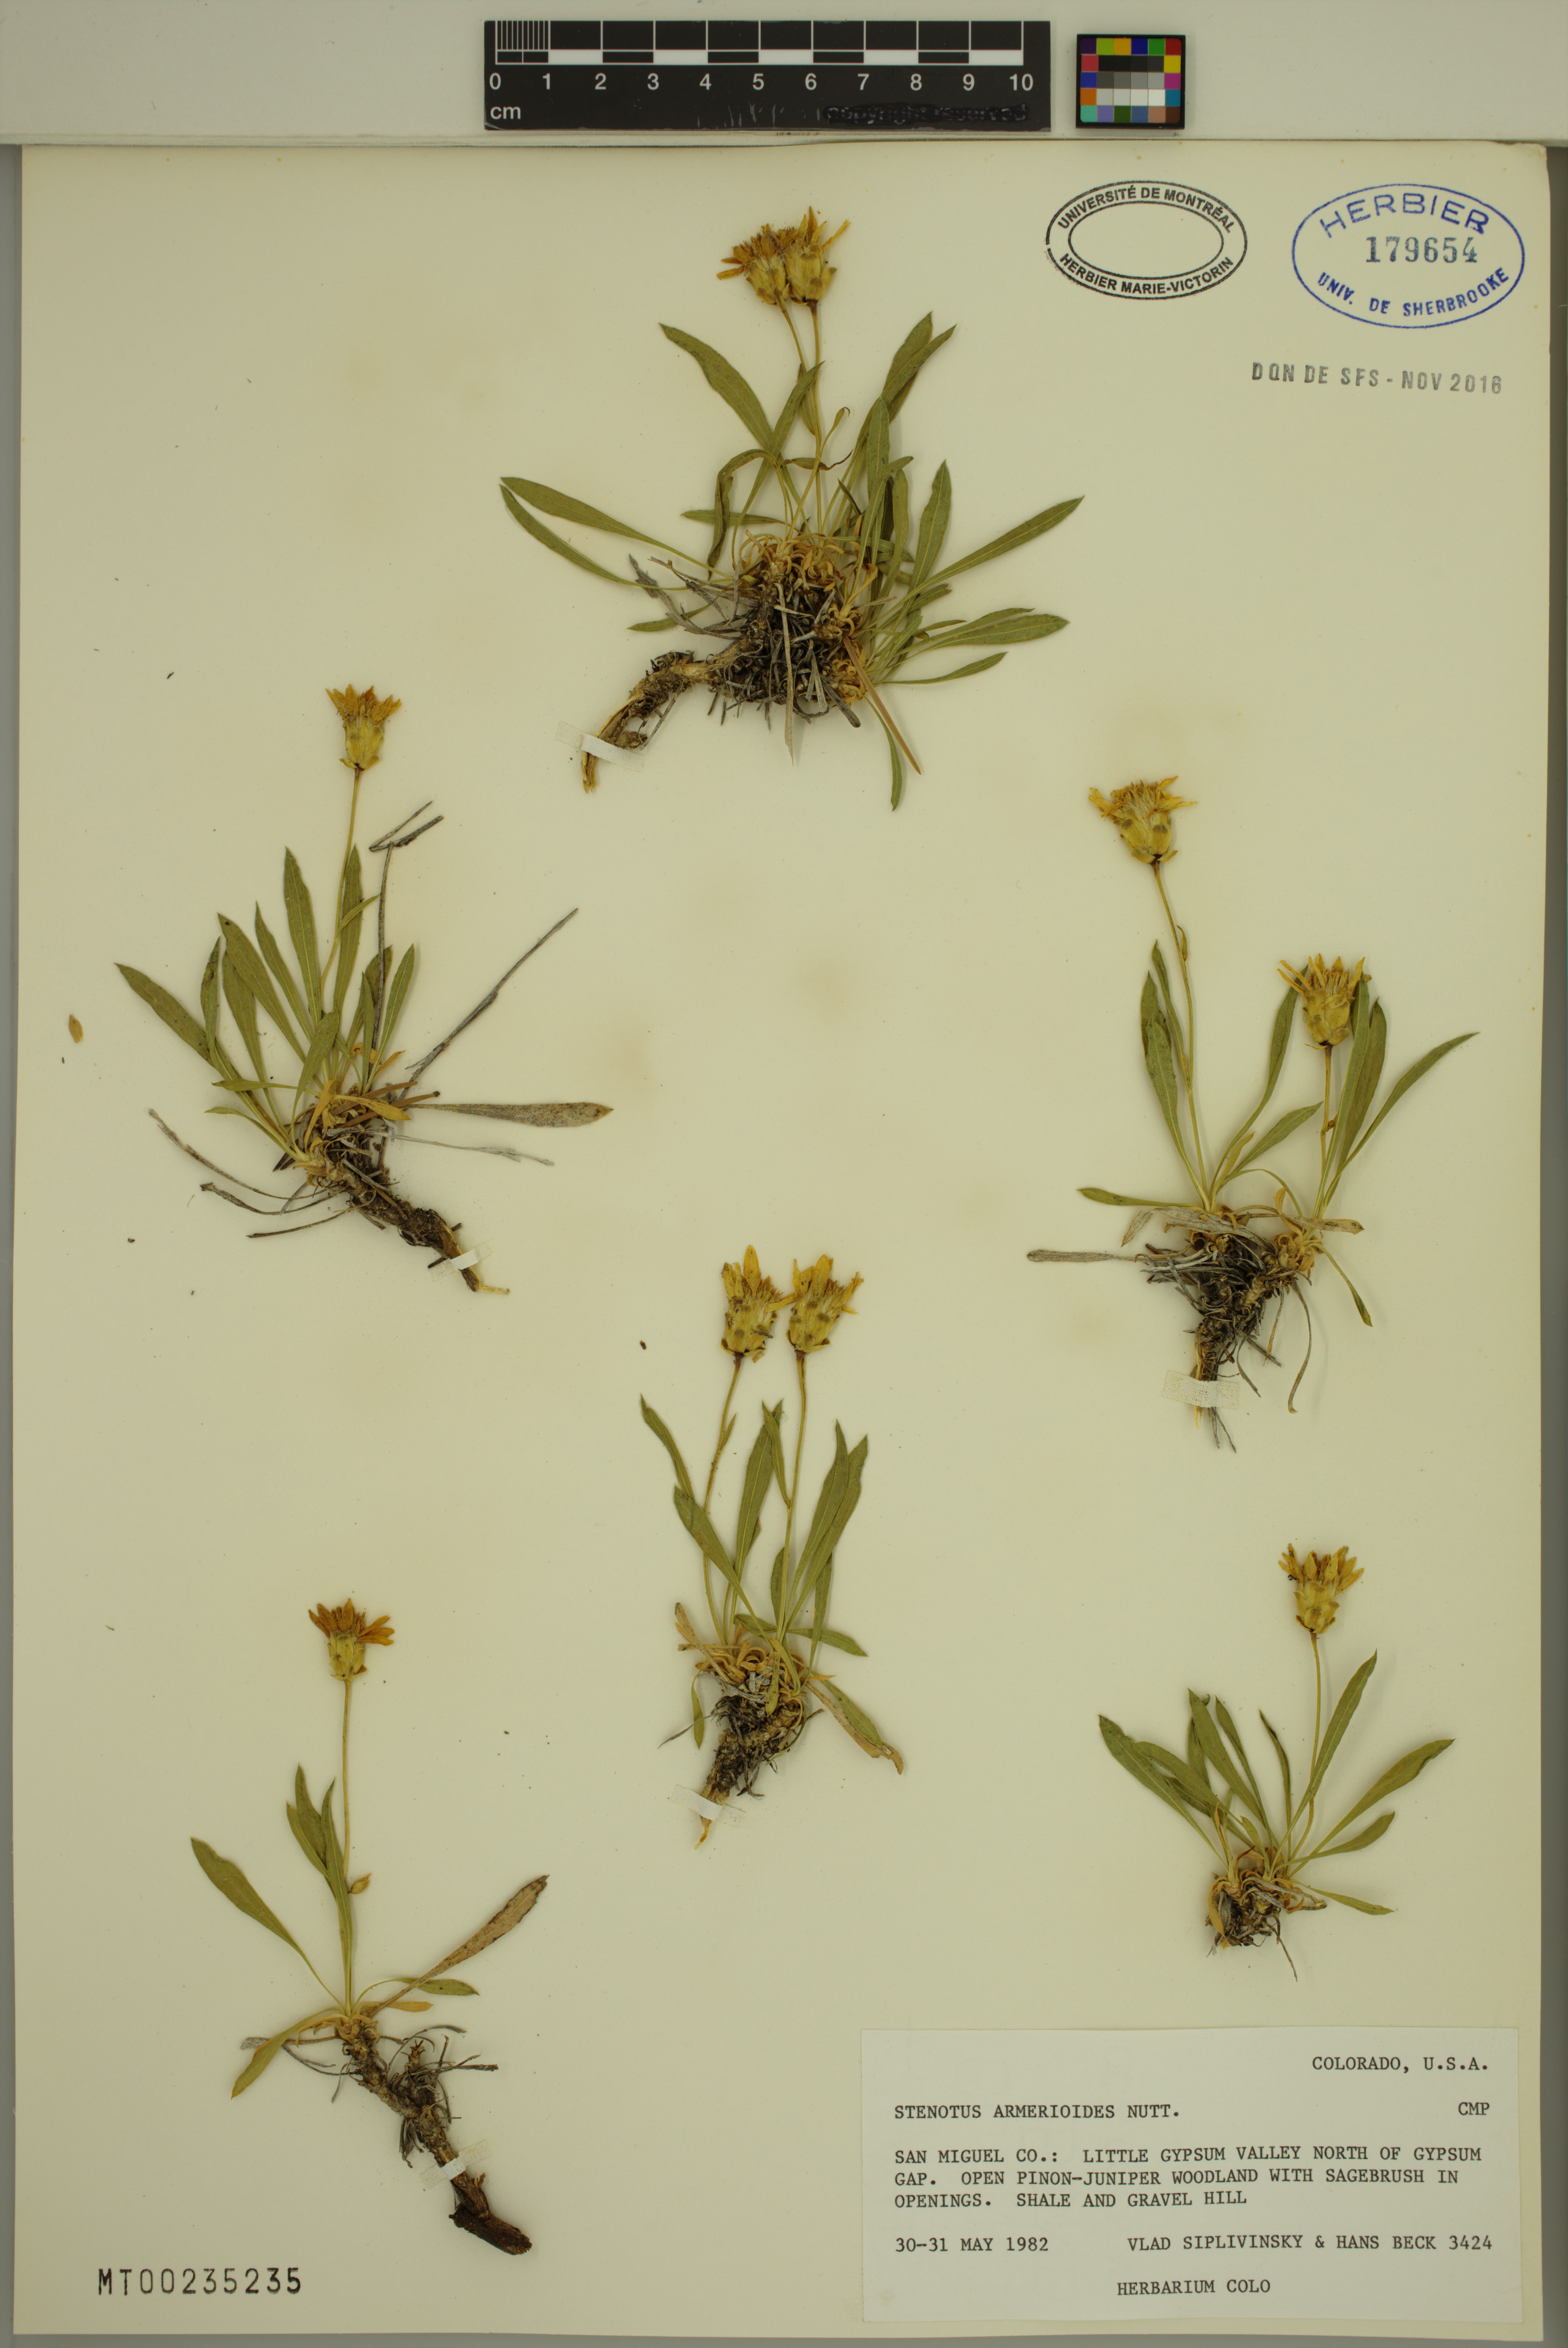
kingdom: Plantae
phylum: Tracheophyta
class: Magnoliopsida
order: Asterales
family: Asteraceae
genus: Stenotus
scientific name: Stenotus armerioides
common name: Thrifty goldenweed
